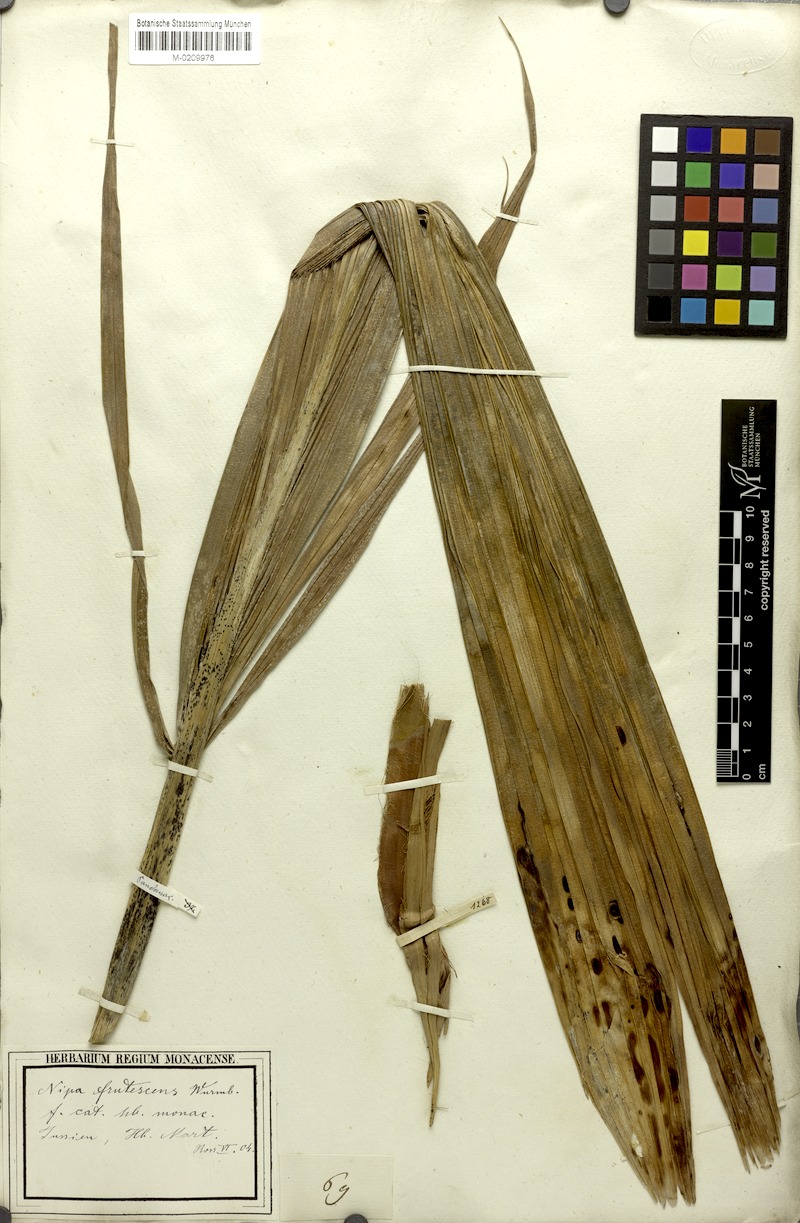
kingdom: Plantae
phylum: Tracheophyta
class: Liliopsida
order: Arecales
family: Arecaceae
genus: Nypa
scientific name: Nypa fruticans
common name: Mangrove palm
